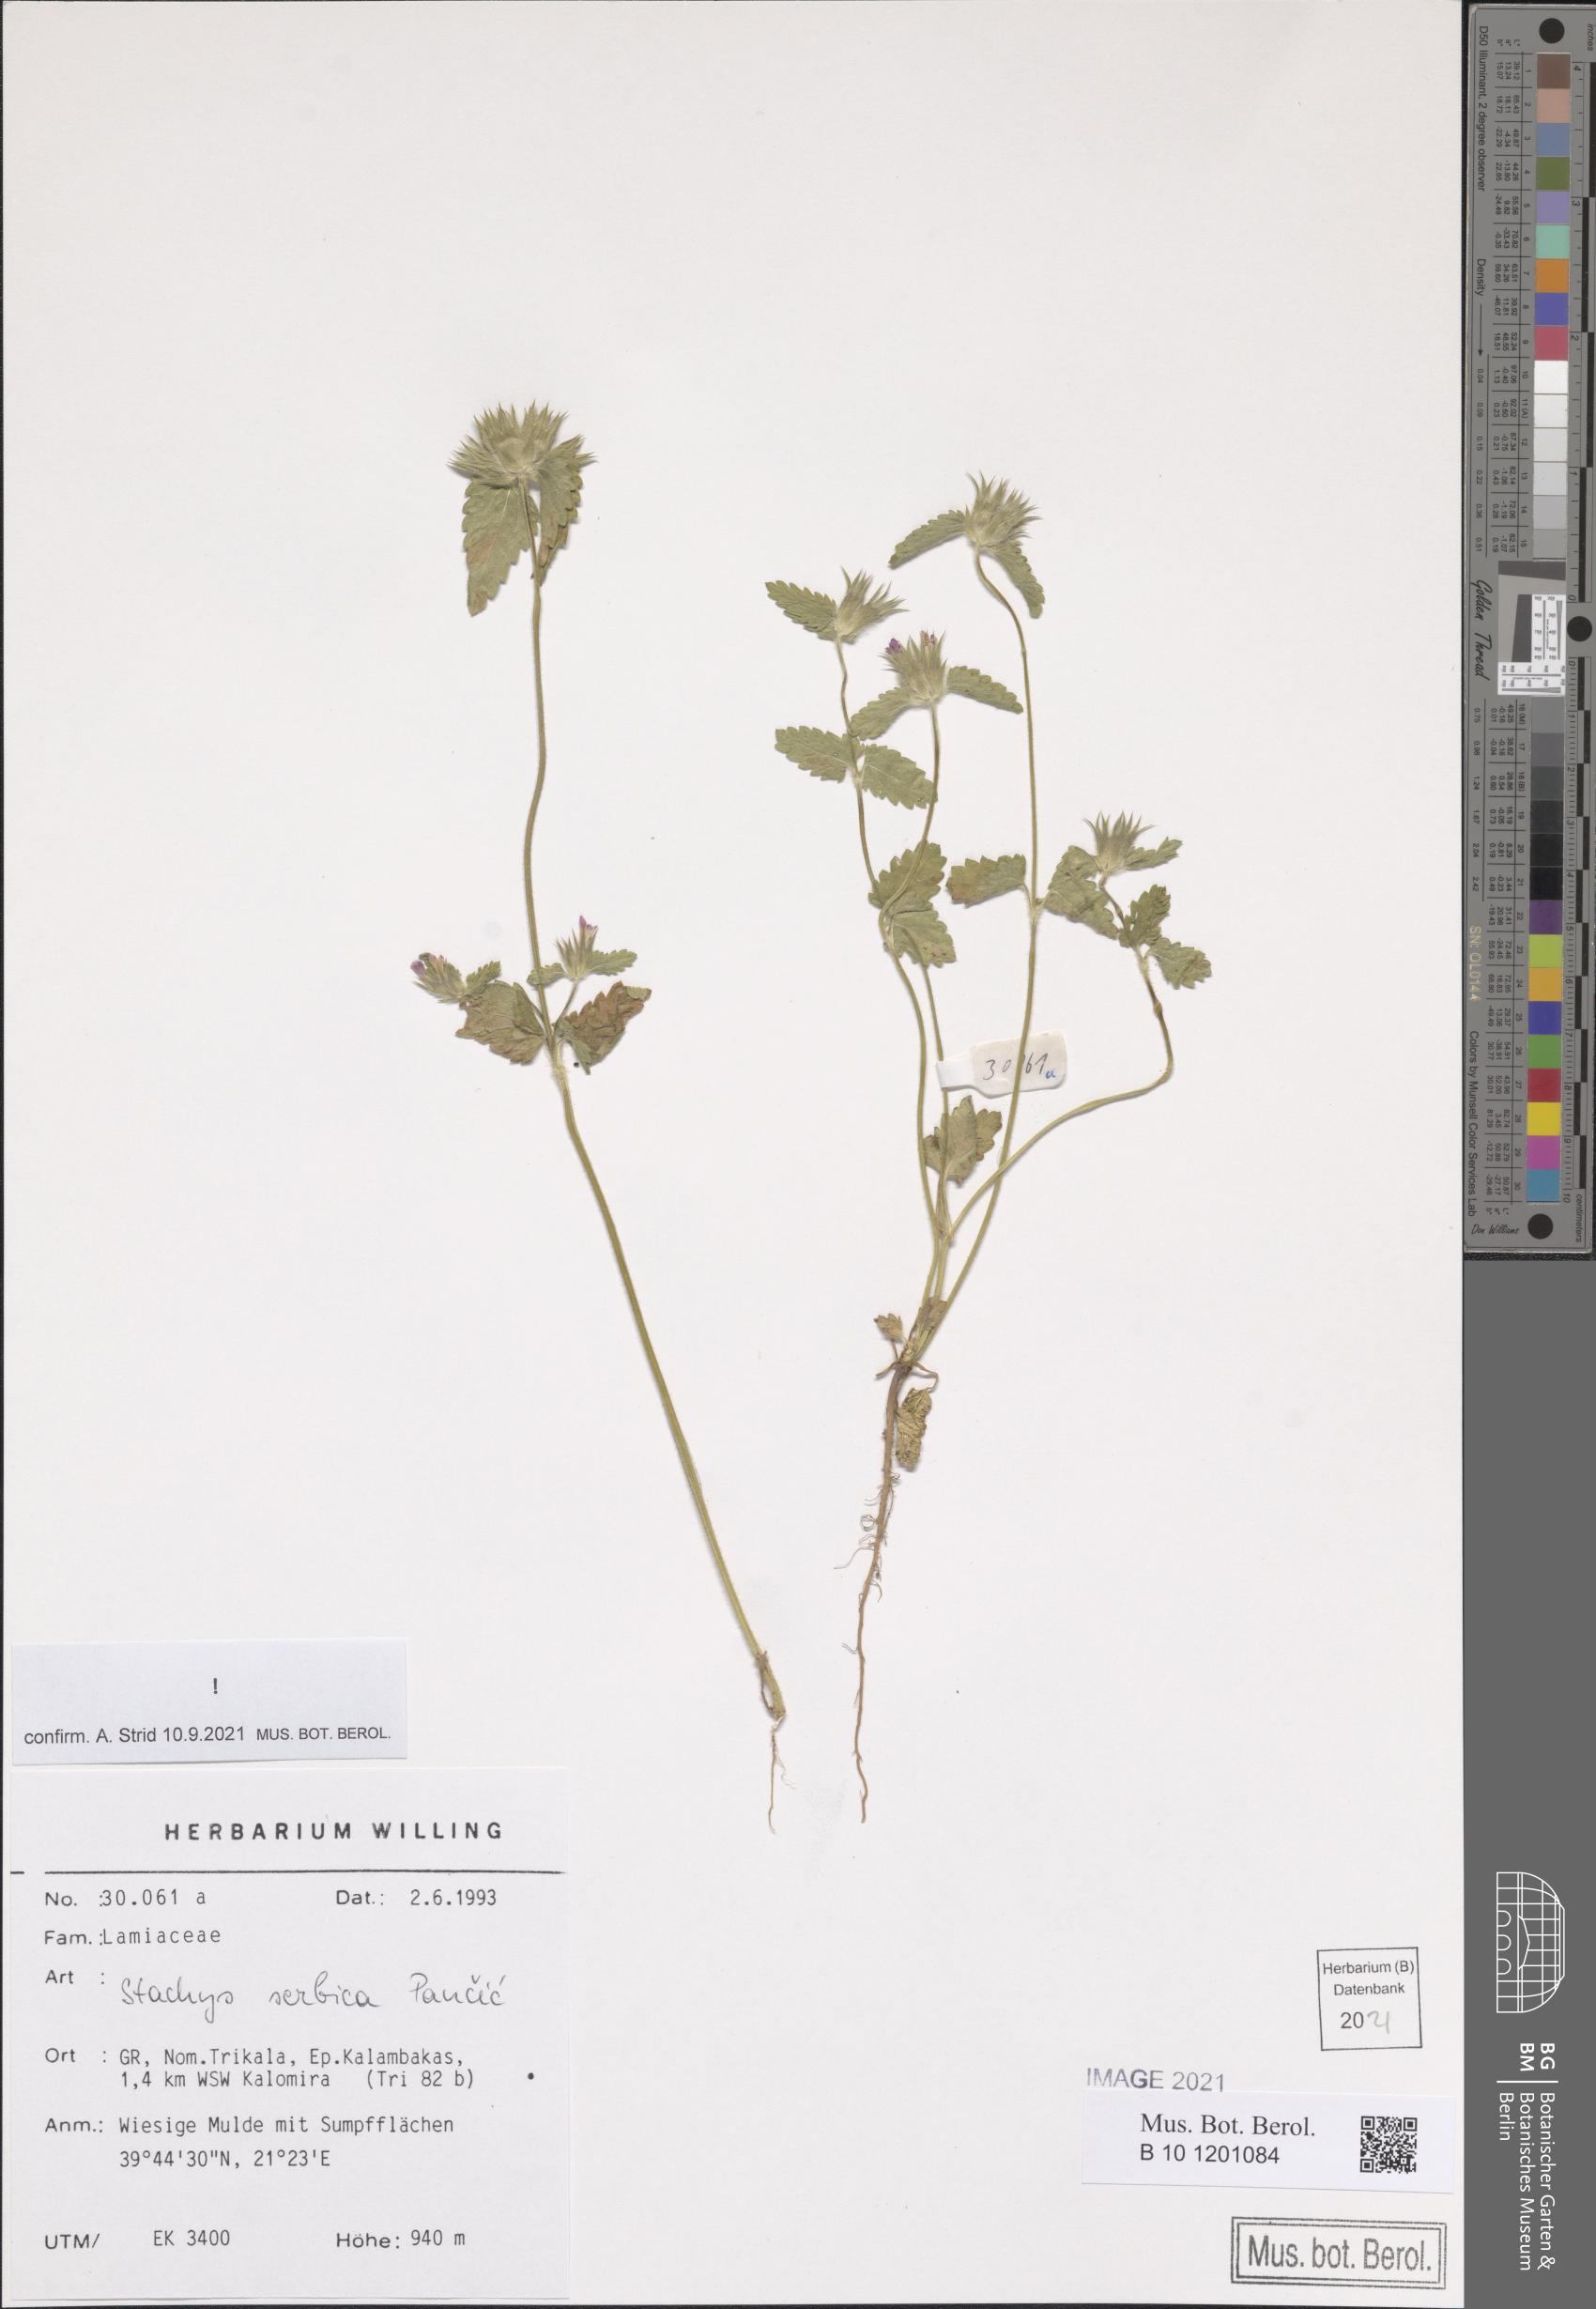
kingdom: Plantae
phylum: Tracheophyta
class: Magnoliopsida
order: Lamiales
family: Lamiaceae
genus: Stachys
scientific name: Stachys serbica
